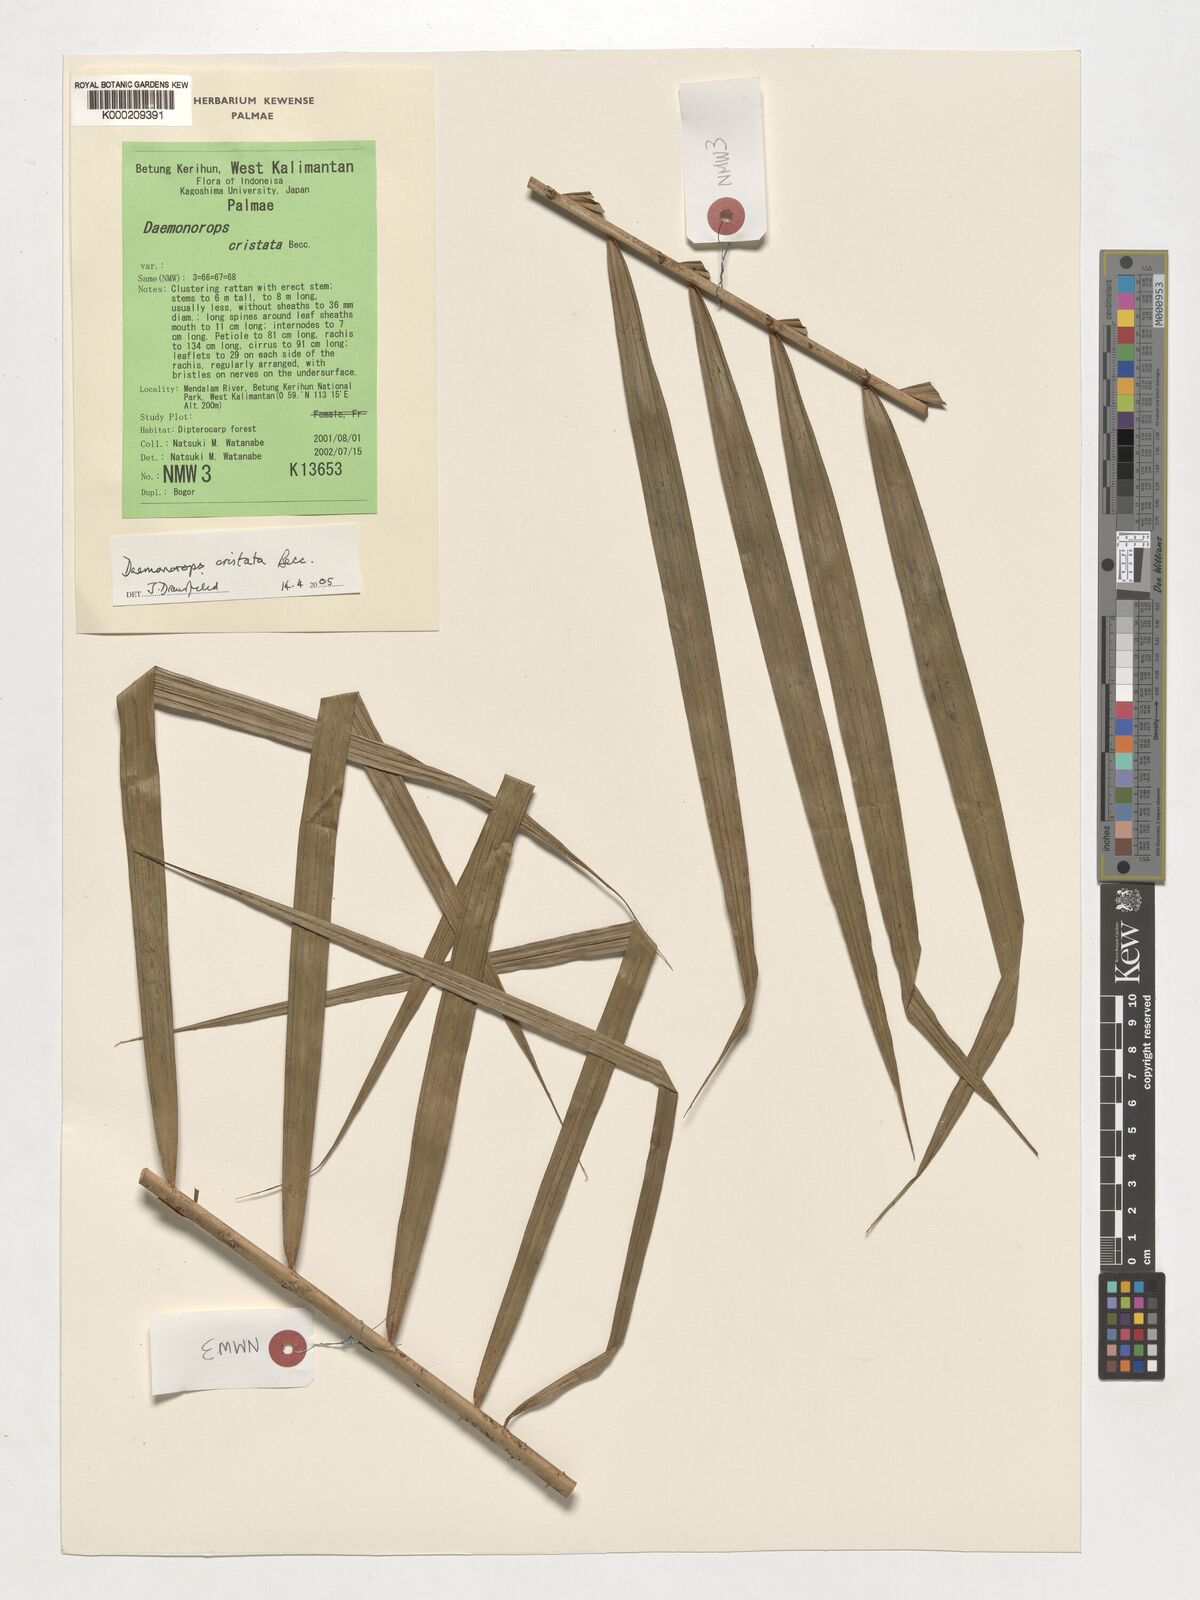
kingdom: Plantae
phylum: Tracheophyta
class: Liliopsida
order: Arecales
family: Arecaceae
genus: Calamus
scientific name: Calamus cristatus
